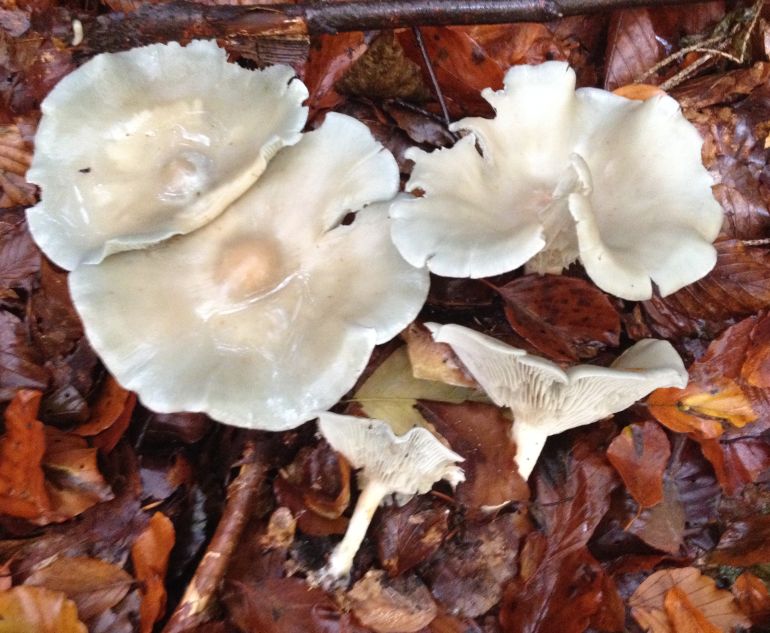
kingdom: Fungi
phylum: Basidiomycota
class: Agaricomycetes
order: Agaricales
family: Tricholomataceae
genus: Clitocybe
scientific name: Clitocybe odora
